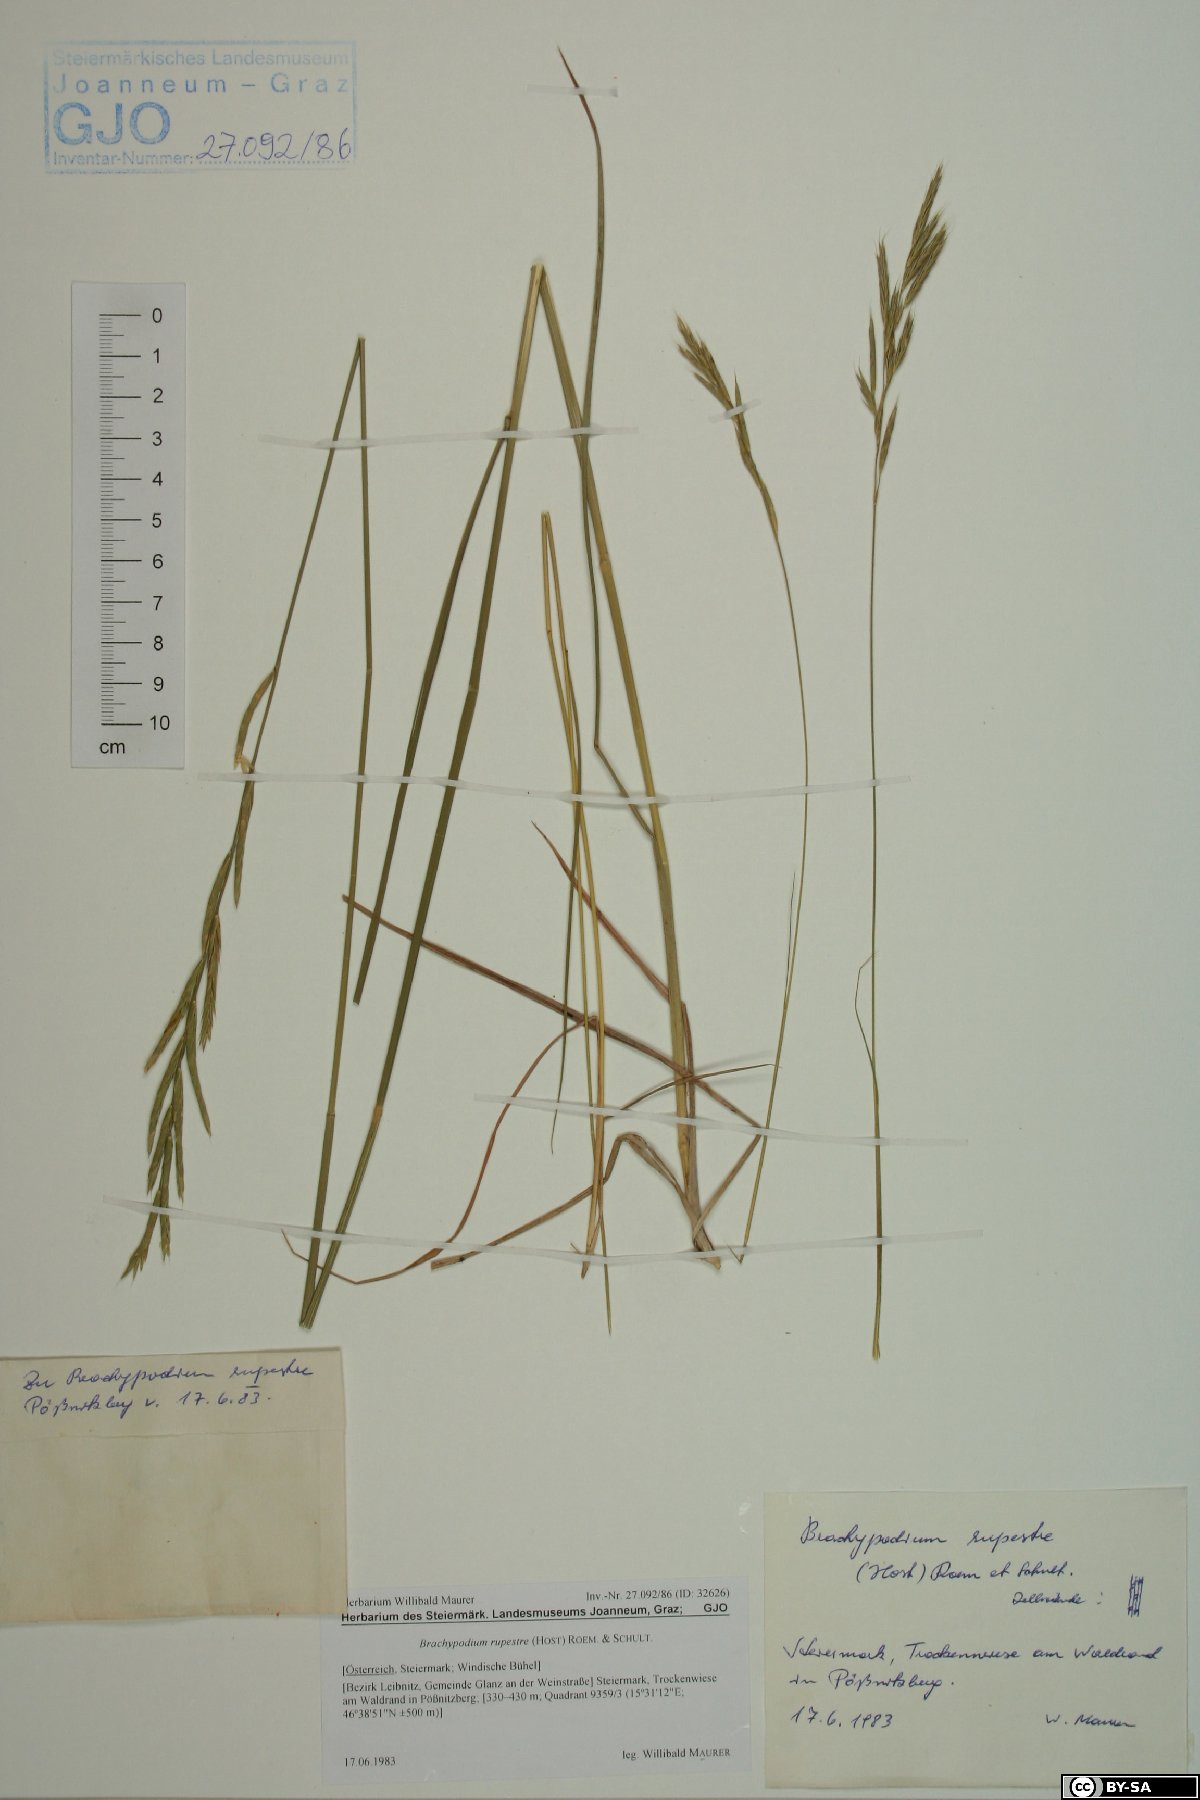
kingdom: Plantae
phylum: Tracheophyta
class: Liliopsida
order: Poales
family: Poaceae
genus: Brachypodium
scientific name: Brachypodium pinnatum
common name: Tor grass
